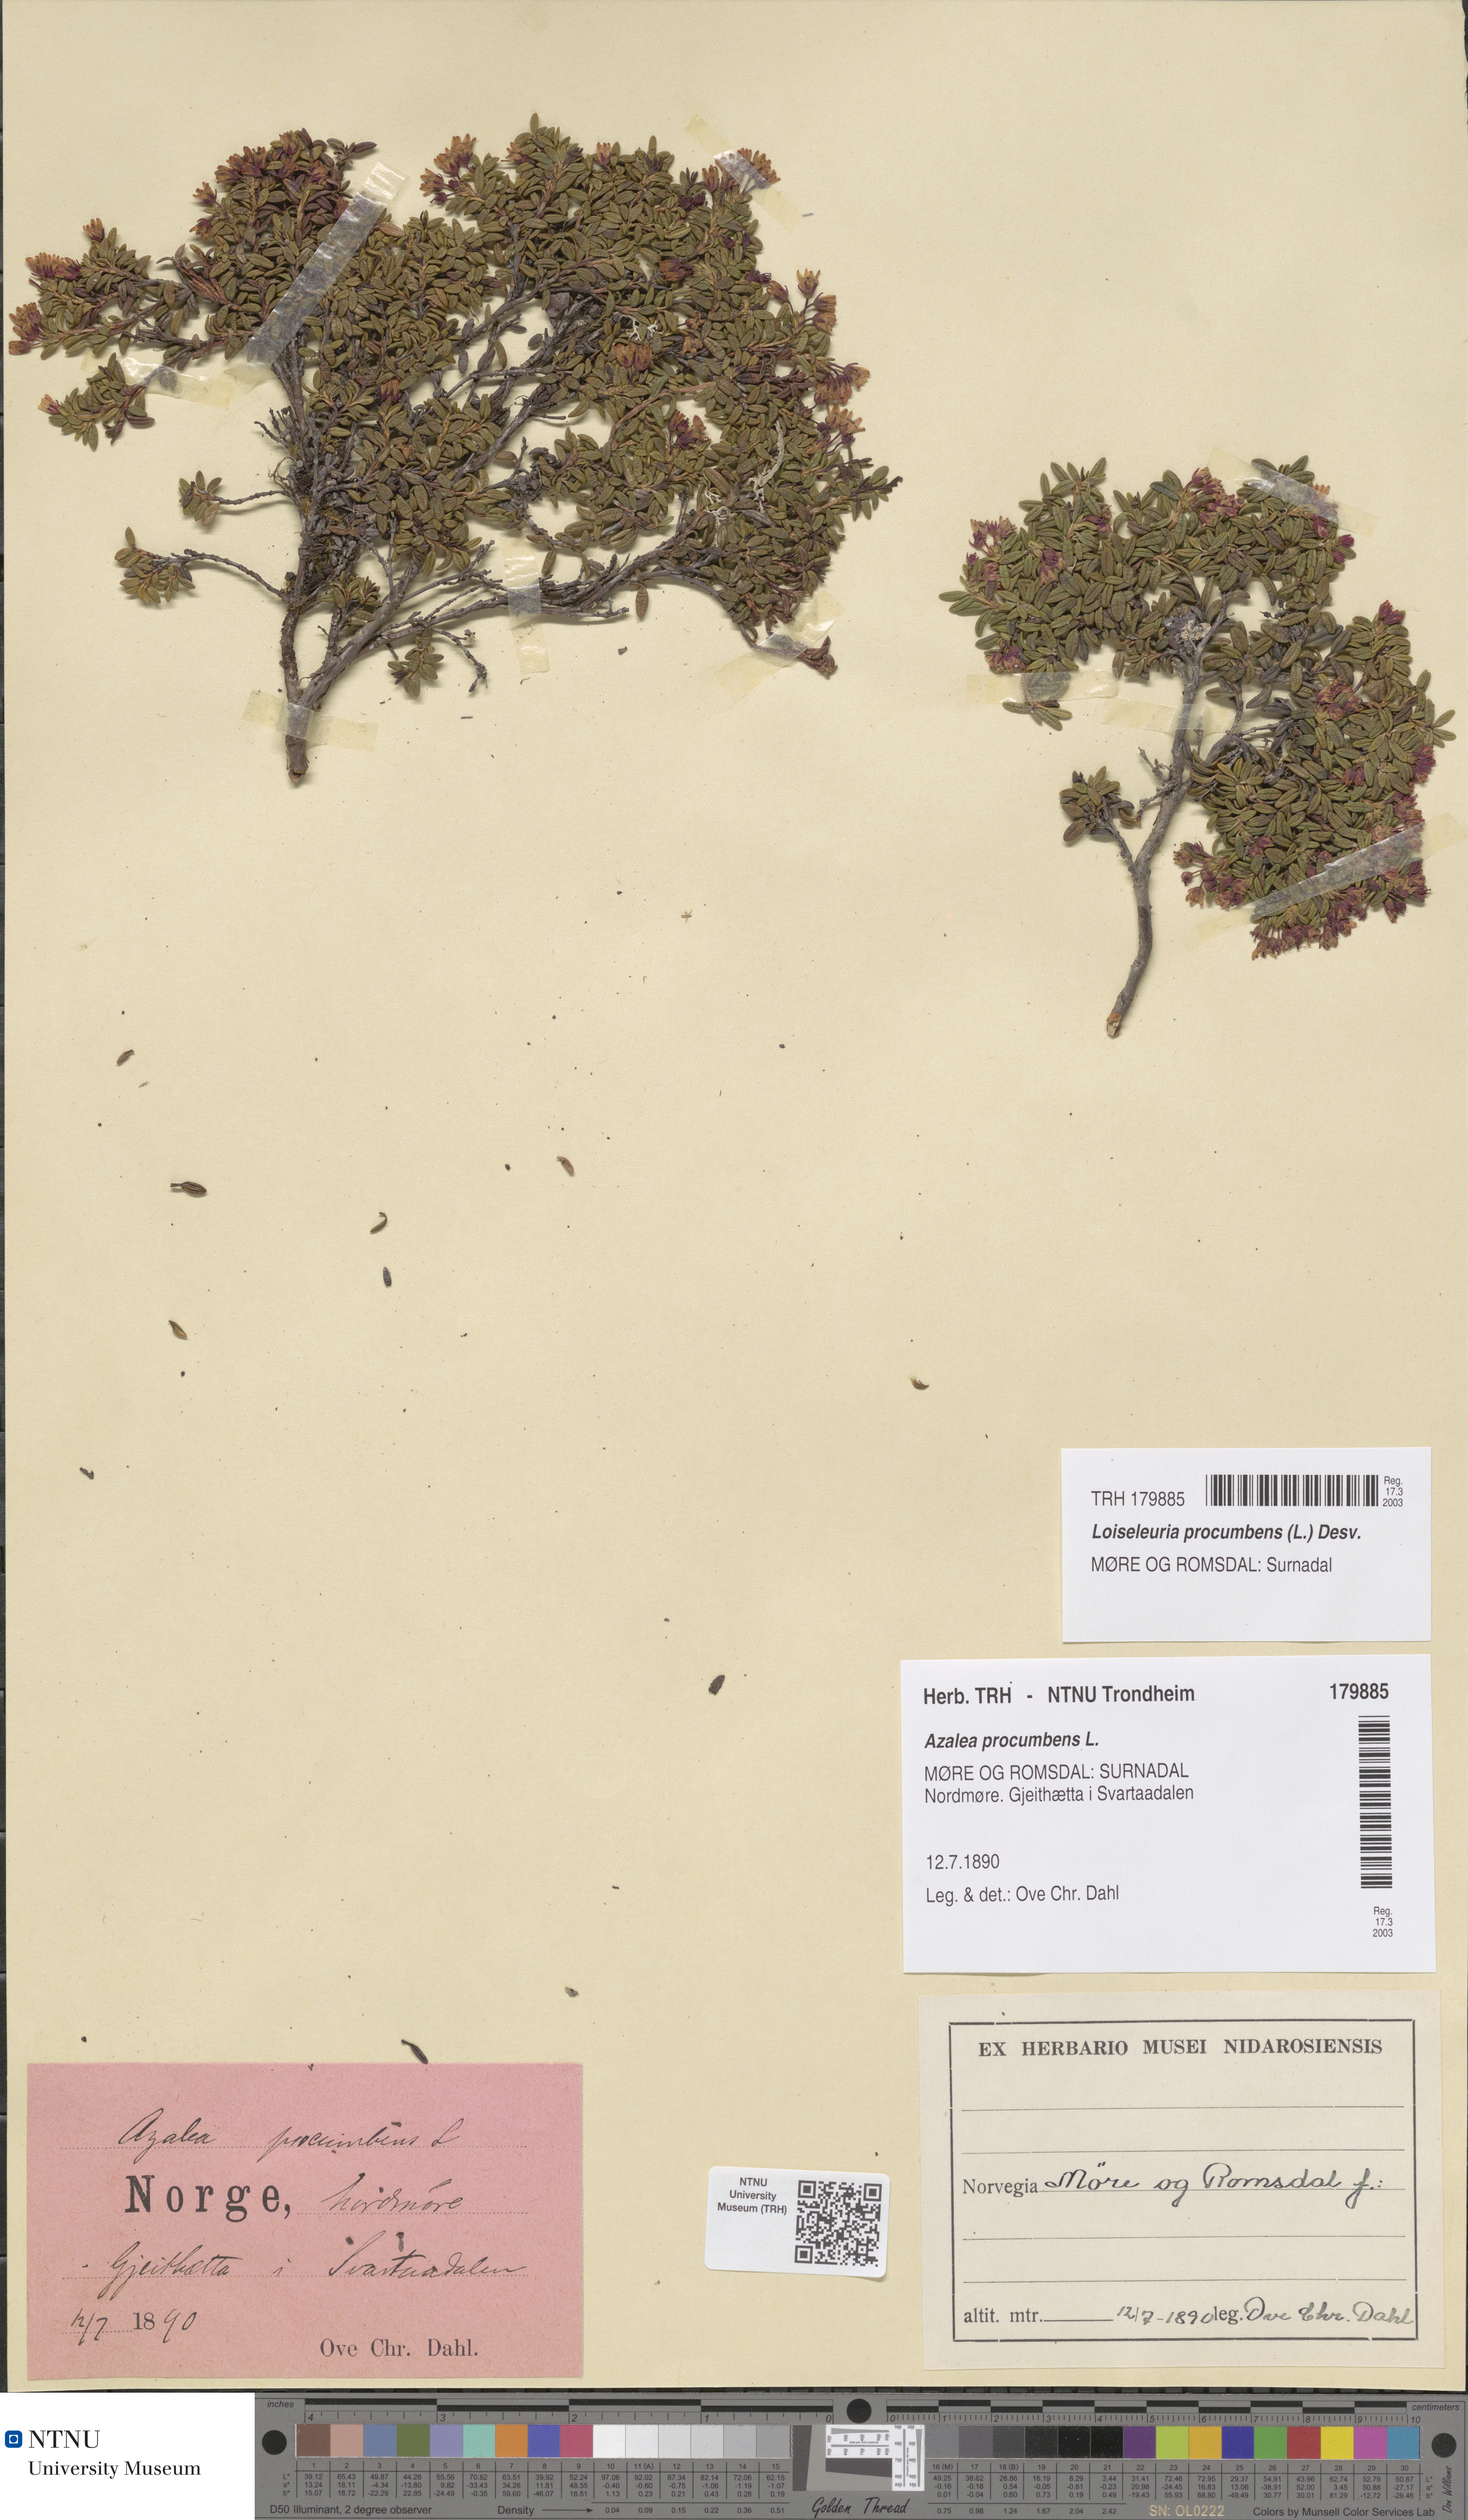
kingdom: Plantae
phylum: Tracheophyta
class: Magnoliopsida
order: Ericales
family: Ericaceae
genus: Kalmia
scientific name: Kalmia procumbens
